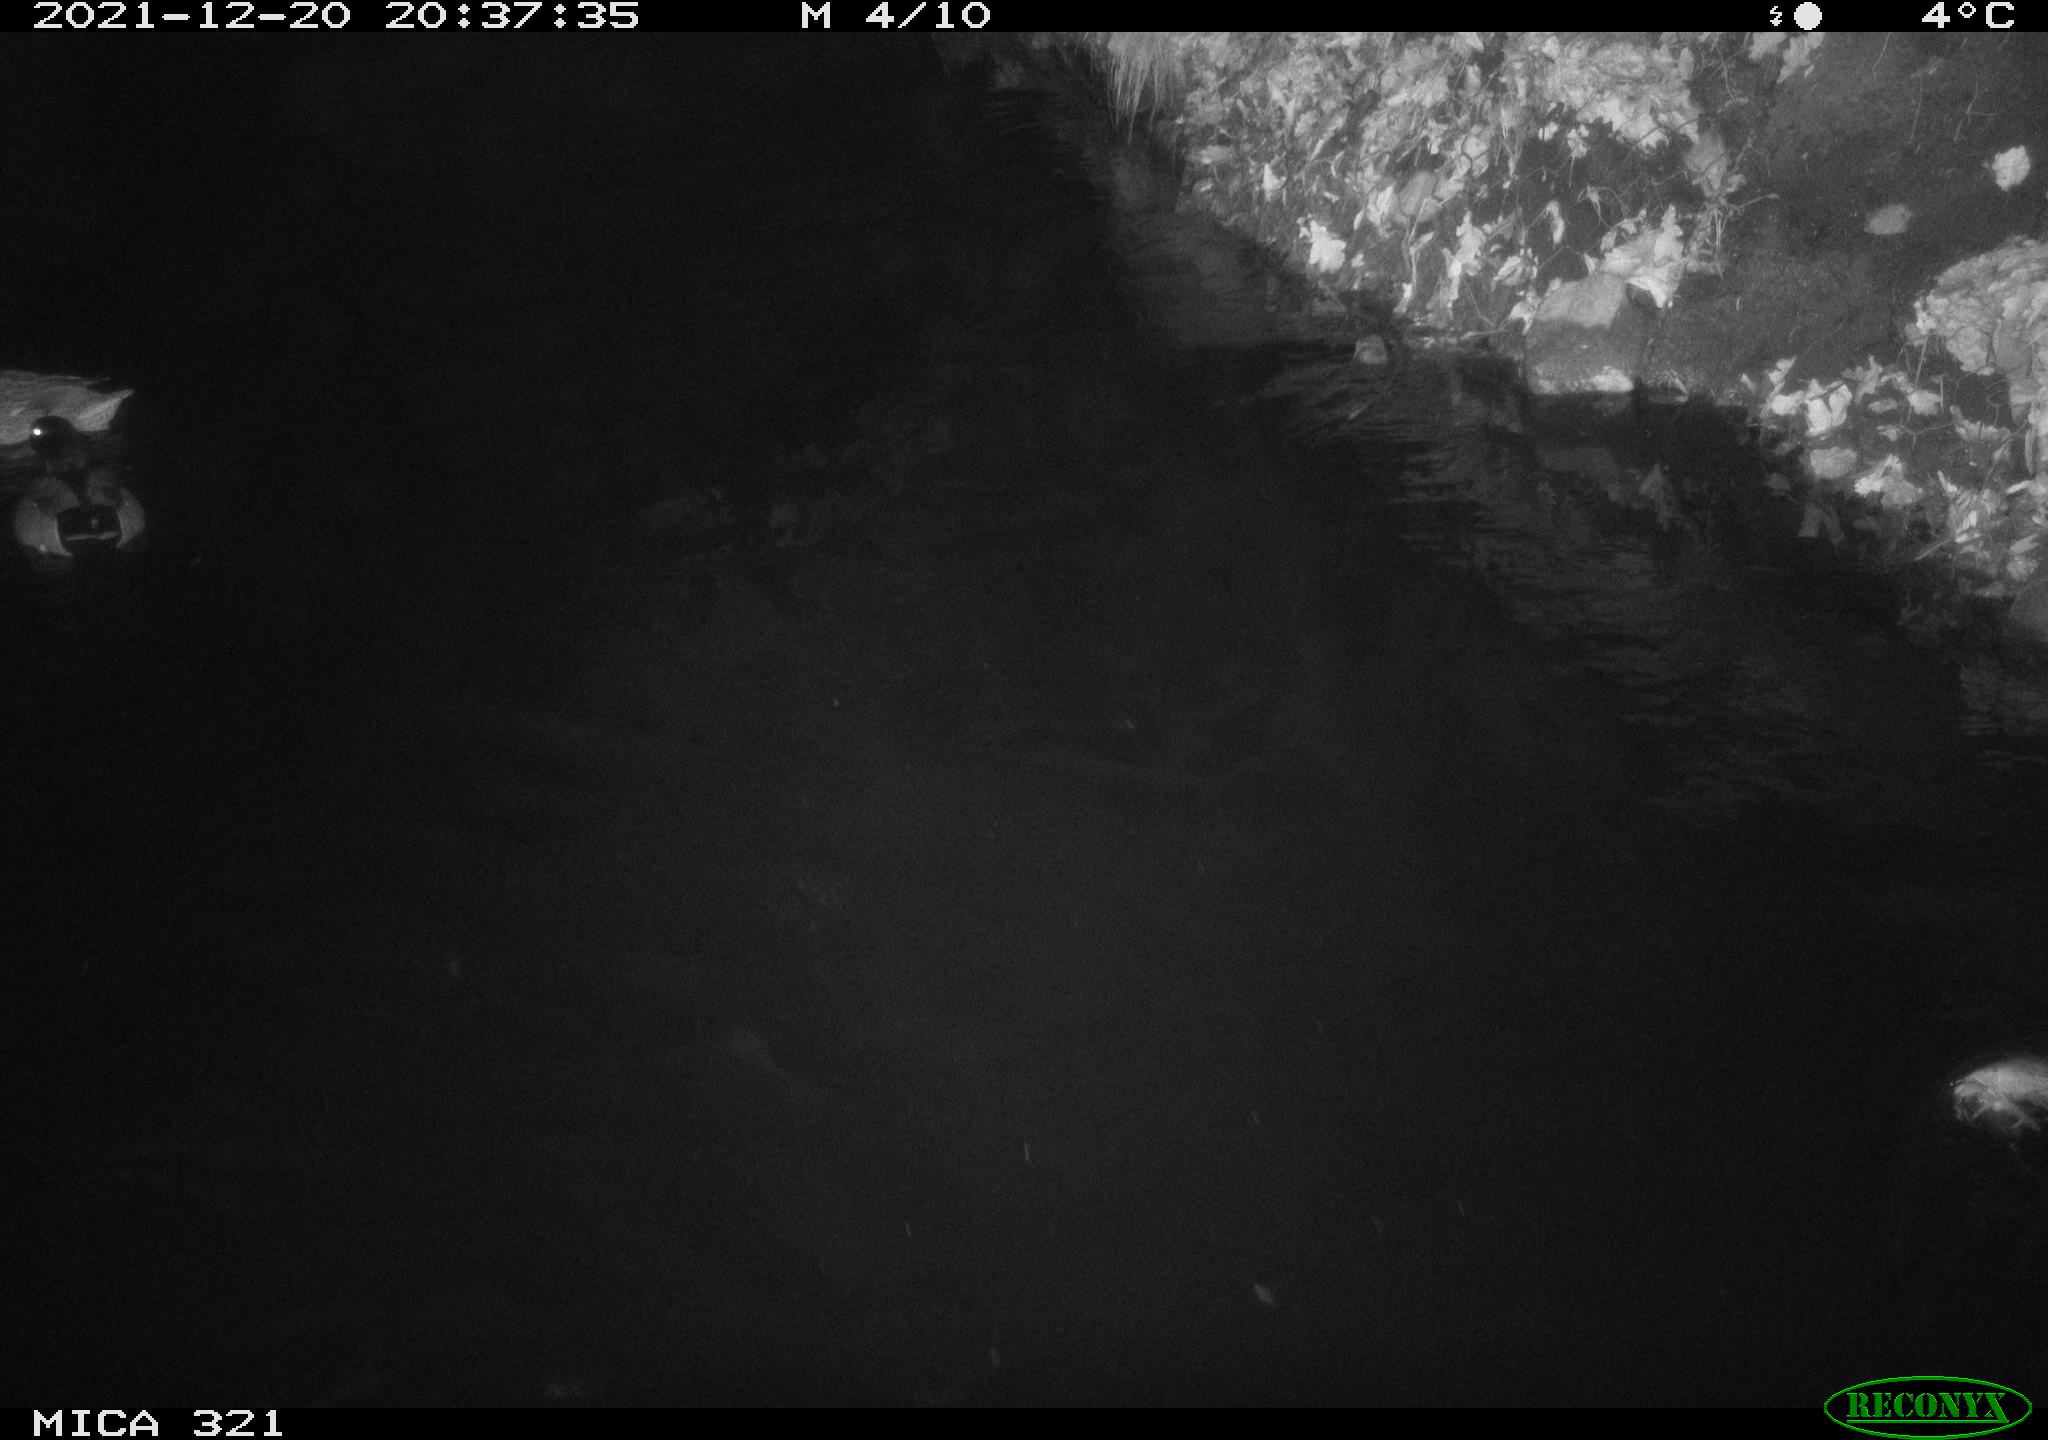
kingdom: Animalia
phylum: Chordata
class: Aves
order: Anseriformes
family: Anatidae
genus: Anas
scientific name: Anas platyrhynchos
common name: Mallard
